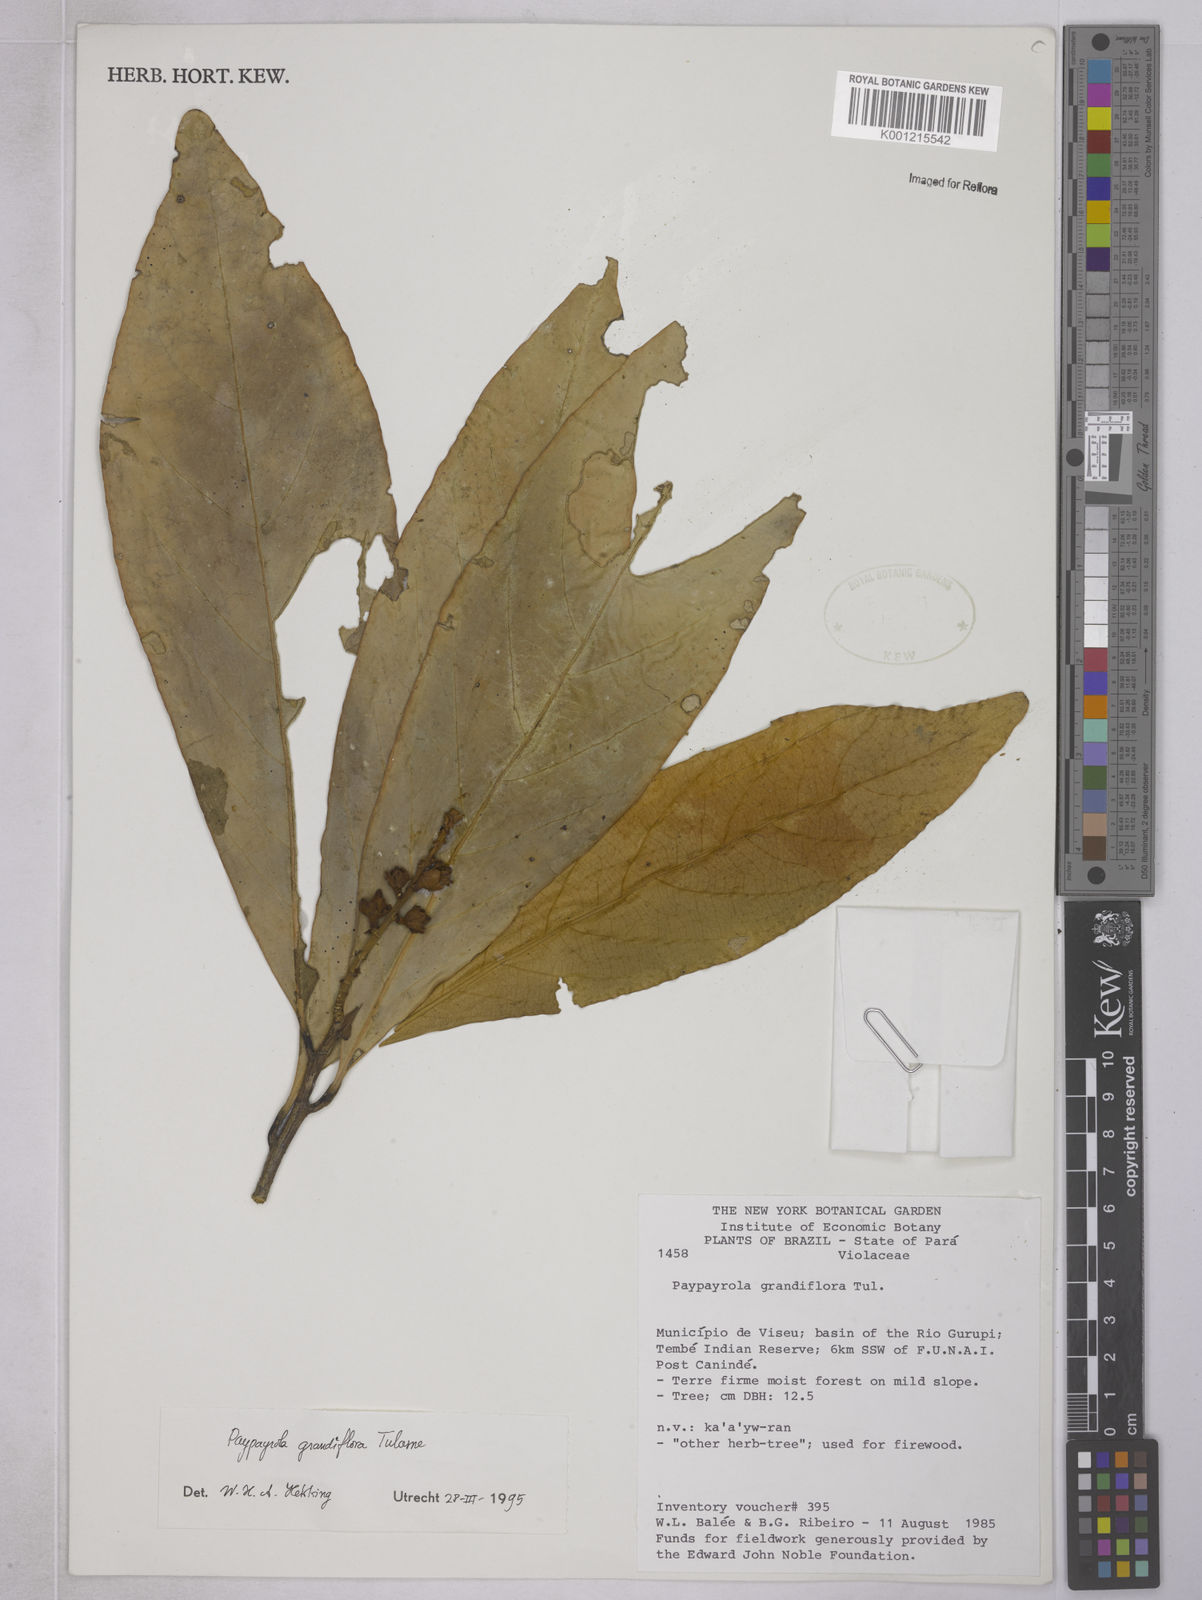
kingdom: Plantae
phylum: Tracheophyta
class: Magnoliopsida
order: Malpighiales
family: Violaceae
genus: Paypayrola
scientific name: Paypayrola grandiflora
